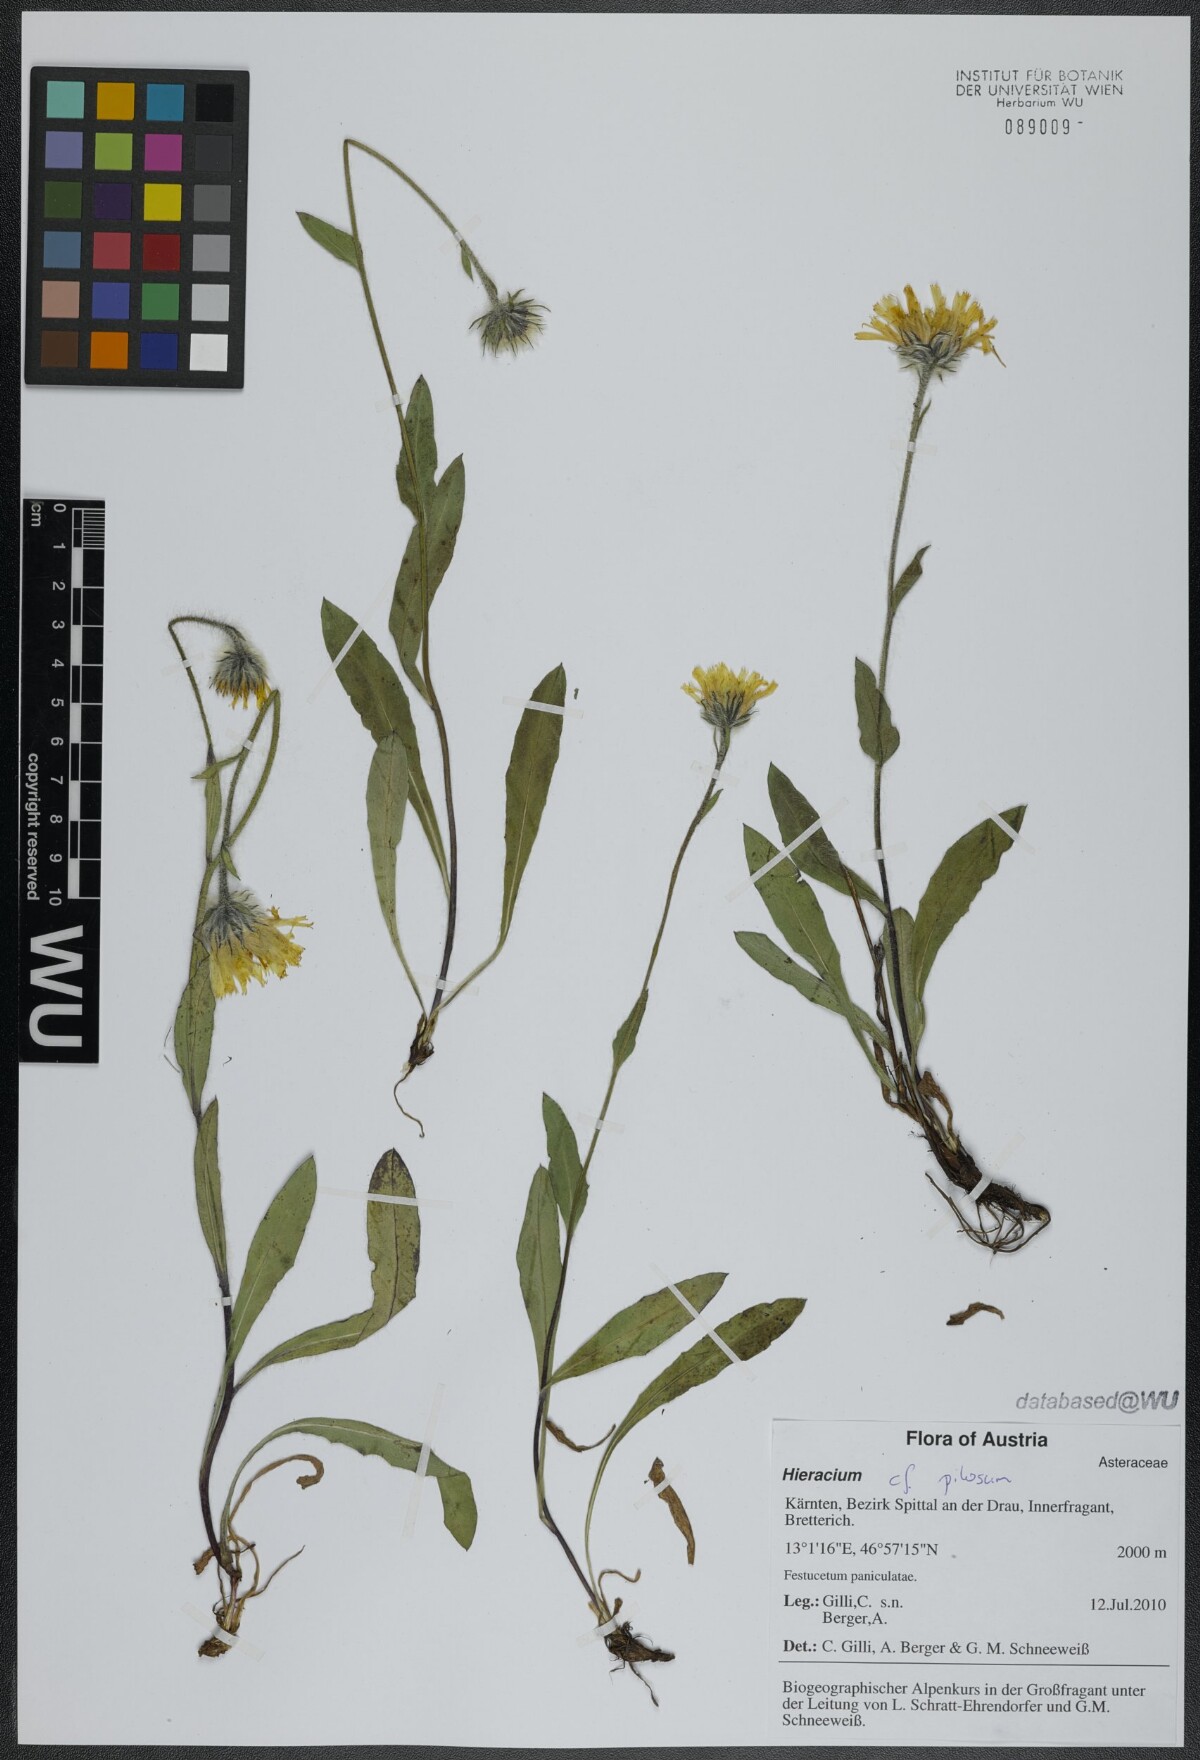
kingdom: Plantae
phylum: Tracheophyta
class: Magnoliopsida
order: Asterales
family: Asteraceae
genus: Hieracium
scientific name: Hieracium pilosum
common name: Fimbriate-pitted hawkweed
